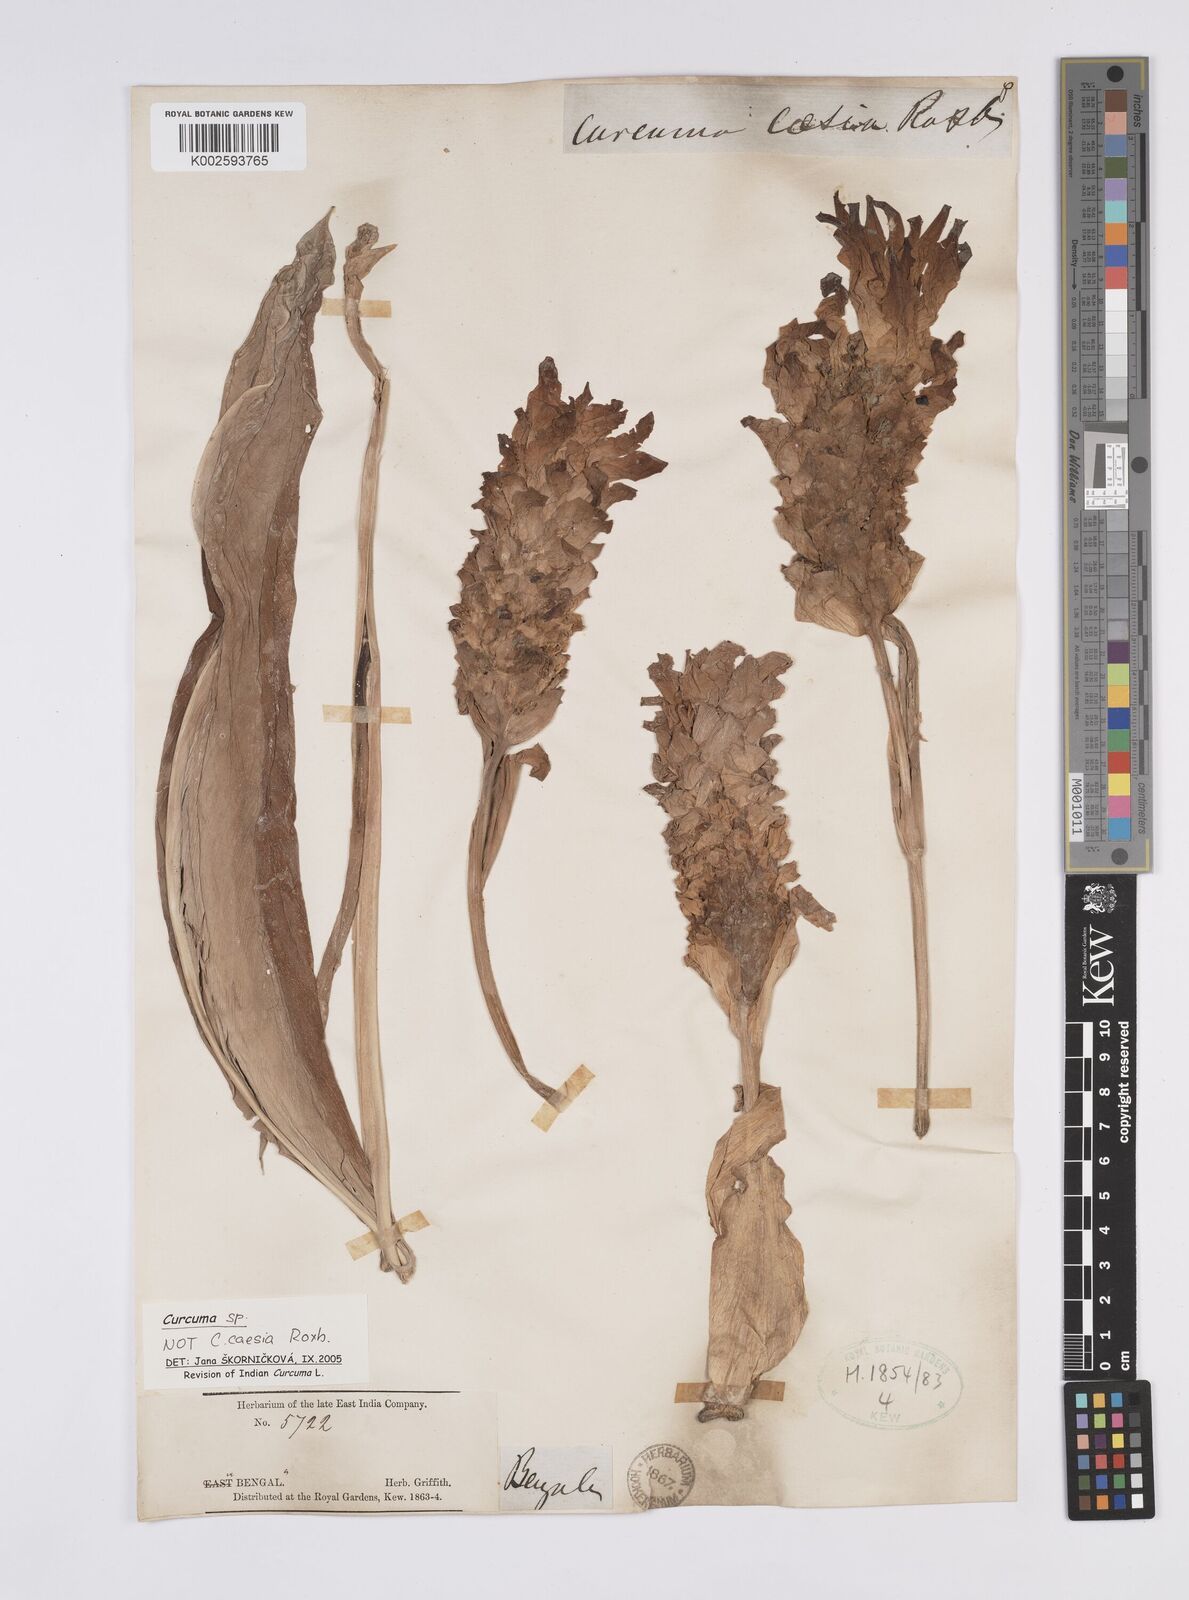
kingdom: Plantae
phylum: Tracheophyta
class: Liliopsida
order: Zingiberales
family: Zingiberaceae
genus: Curcuma
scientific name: Curcuma
